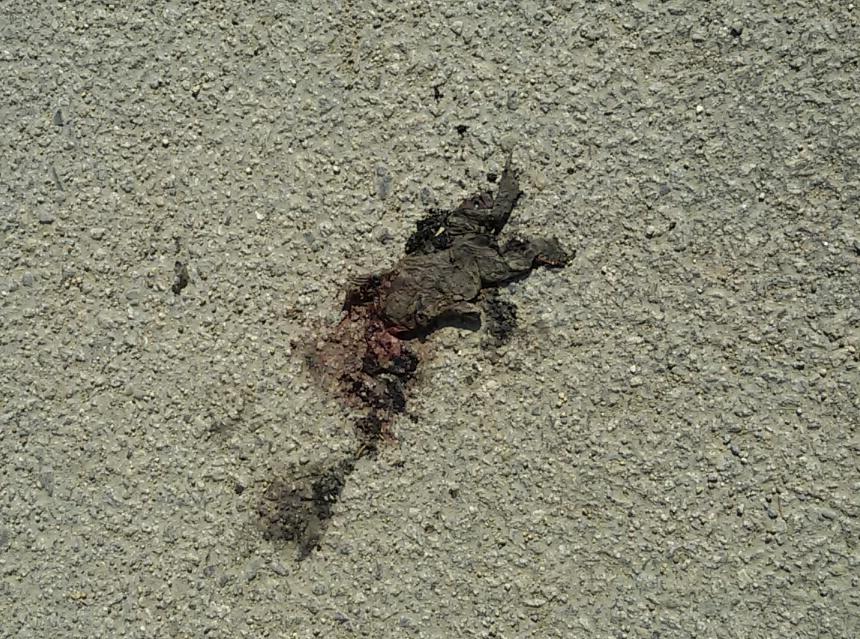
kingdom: Animalia
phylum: Chordata
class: Amphibia
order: Anura
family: Bufonidae
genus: Bufo
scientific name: Bufo bufo
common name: Common toad
